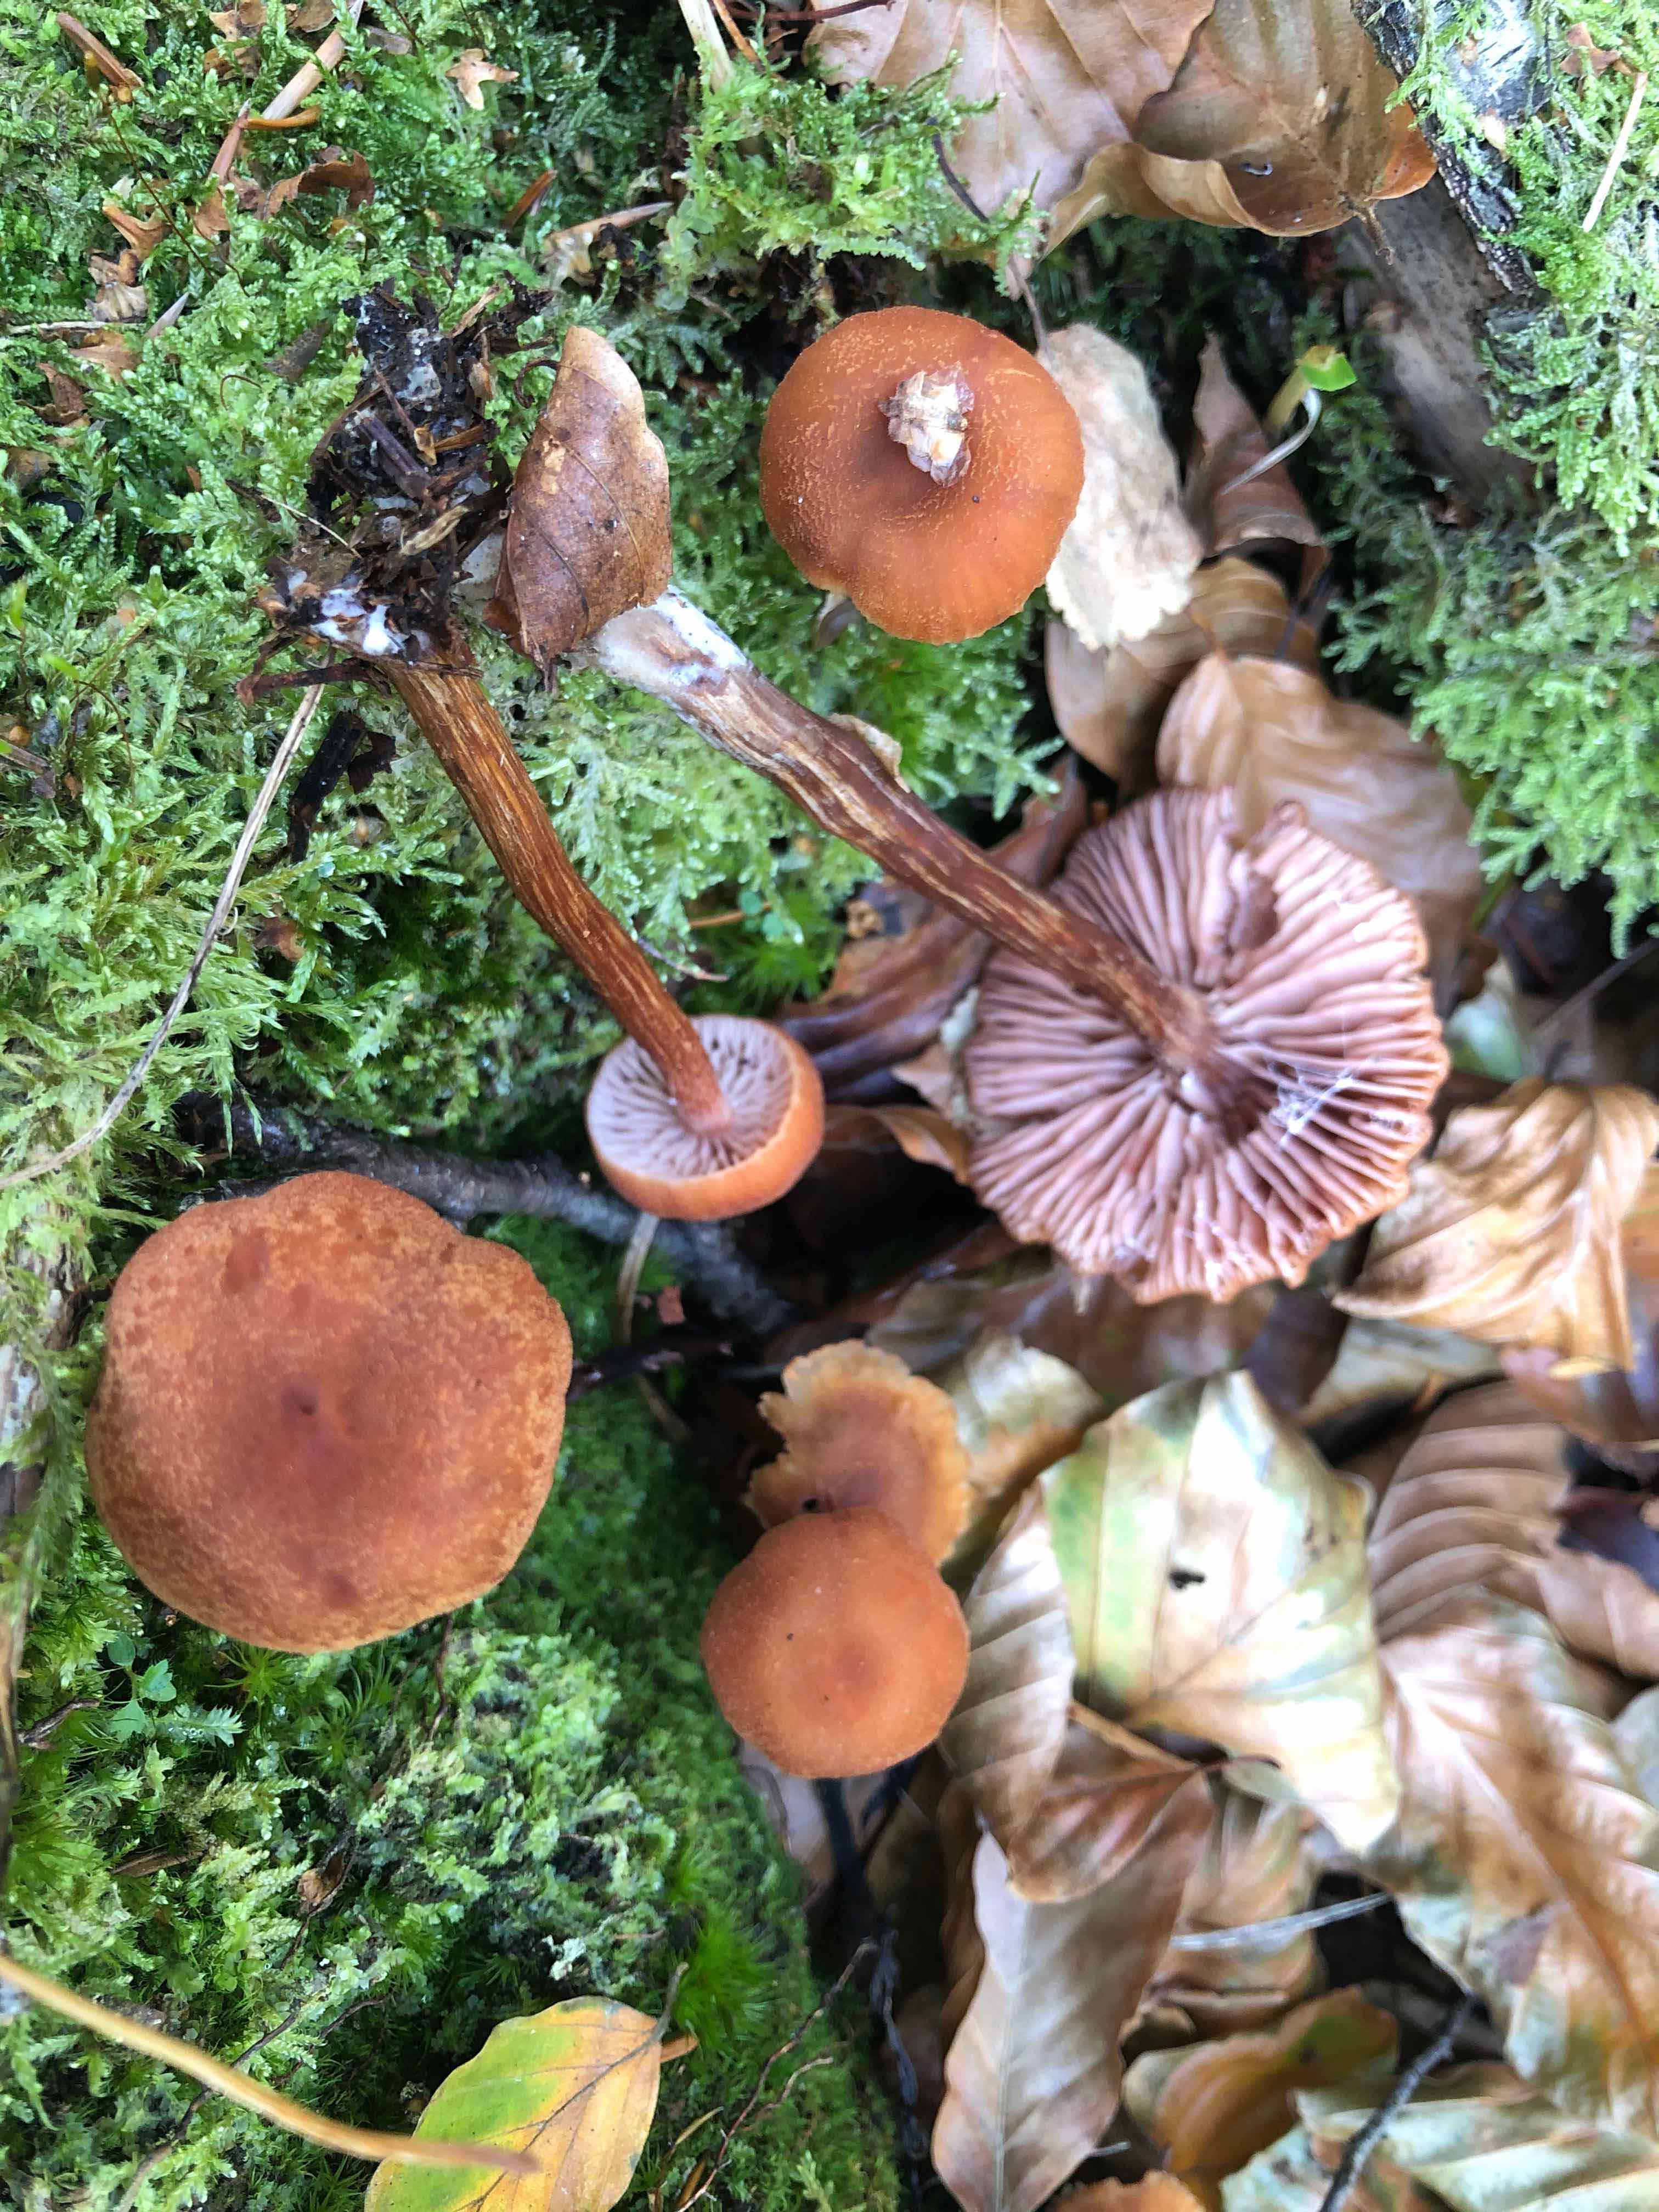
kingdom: Fungi
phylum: Basidiomycota
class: Agaricomycetes
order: Agaricales
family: Hydnangiaceae
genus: Laccaria
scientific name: Laccaria proxima
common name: stor ametysthat
